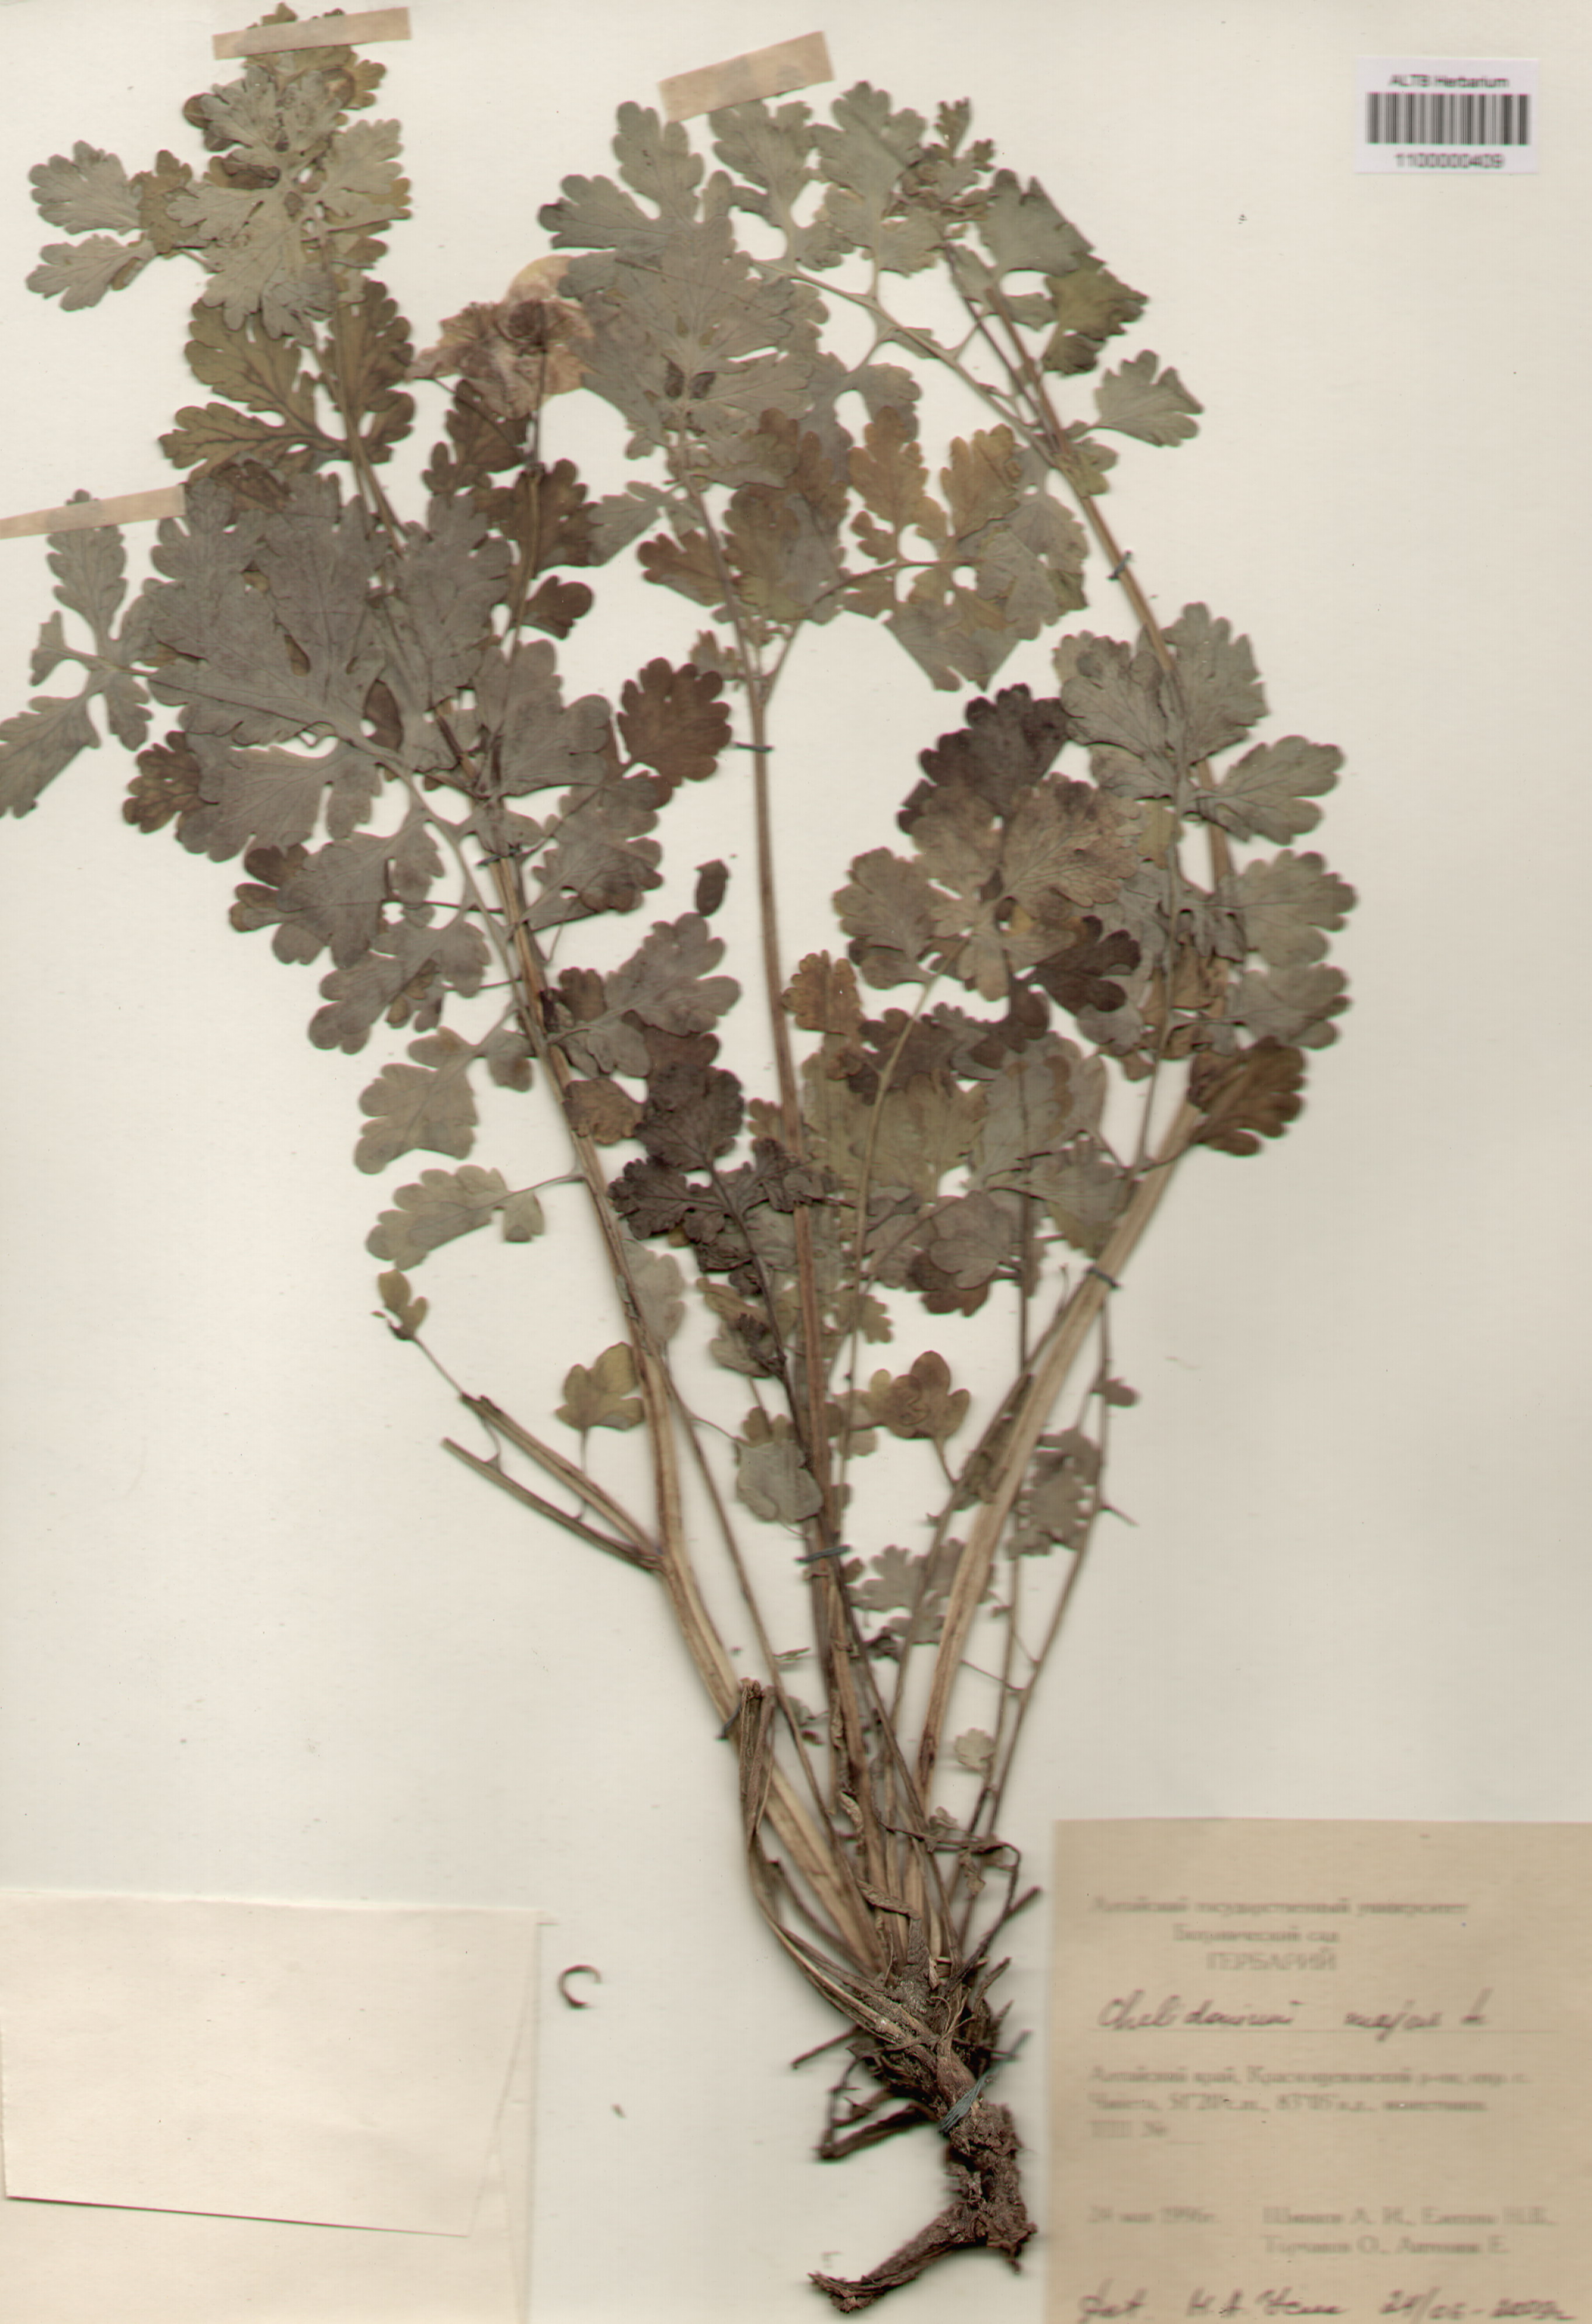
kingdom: Plantae
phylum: Tracheophyta
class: Magnoliopsida
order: Ranunculales
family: Papaveraceae
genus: Chelidonium
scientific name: Chelidonium majus
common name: Greater celandine
